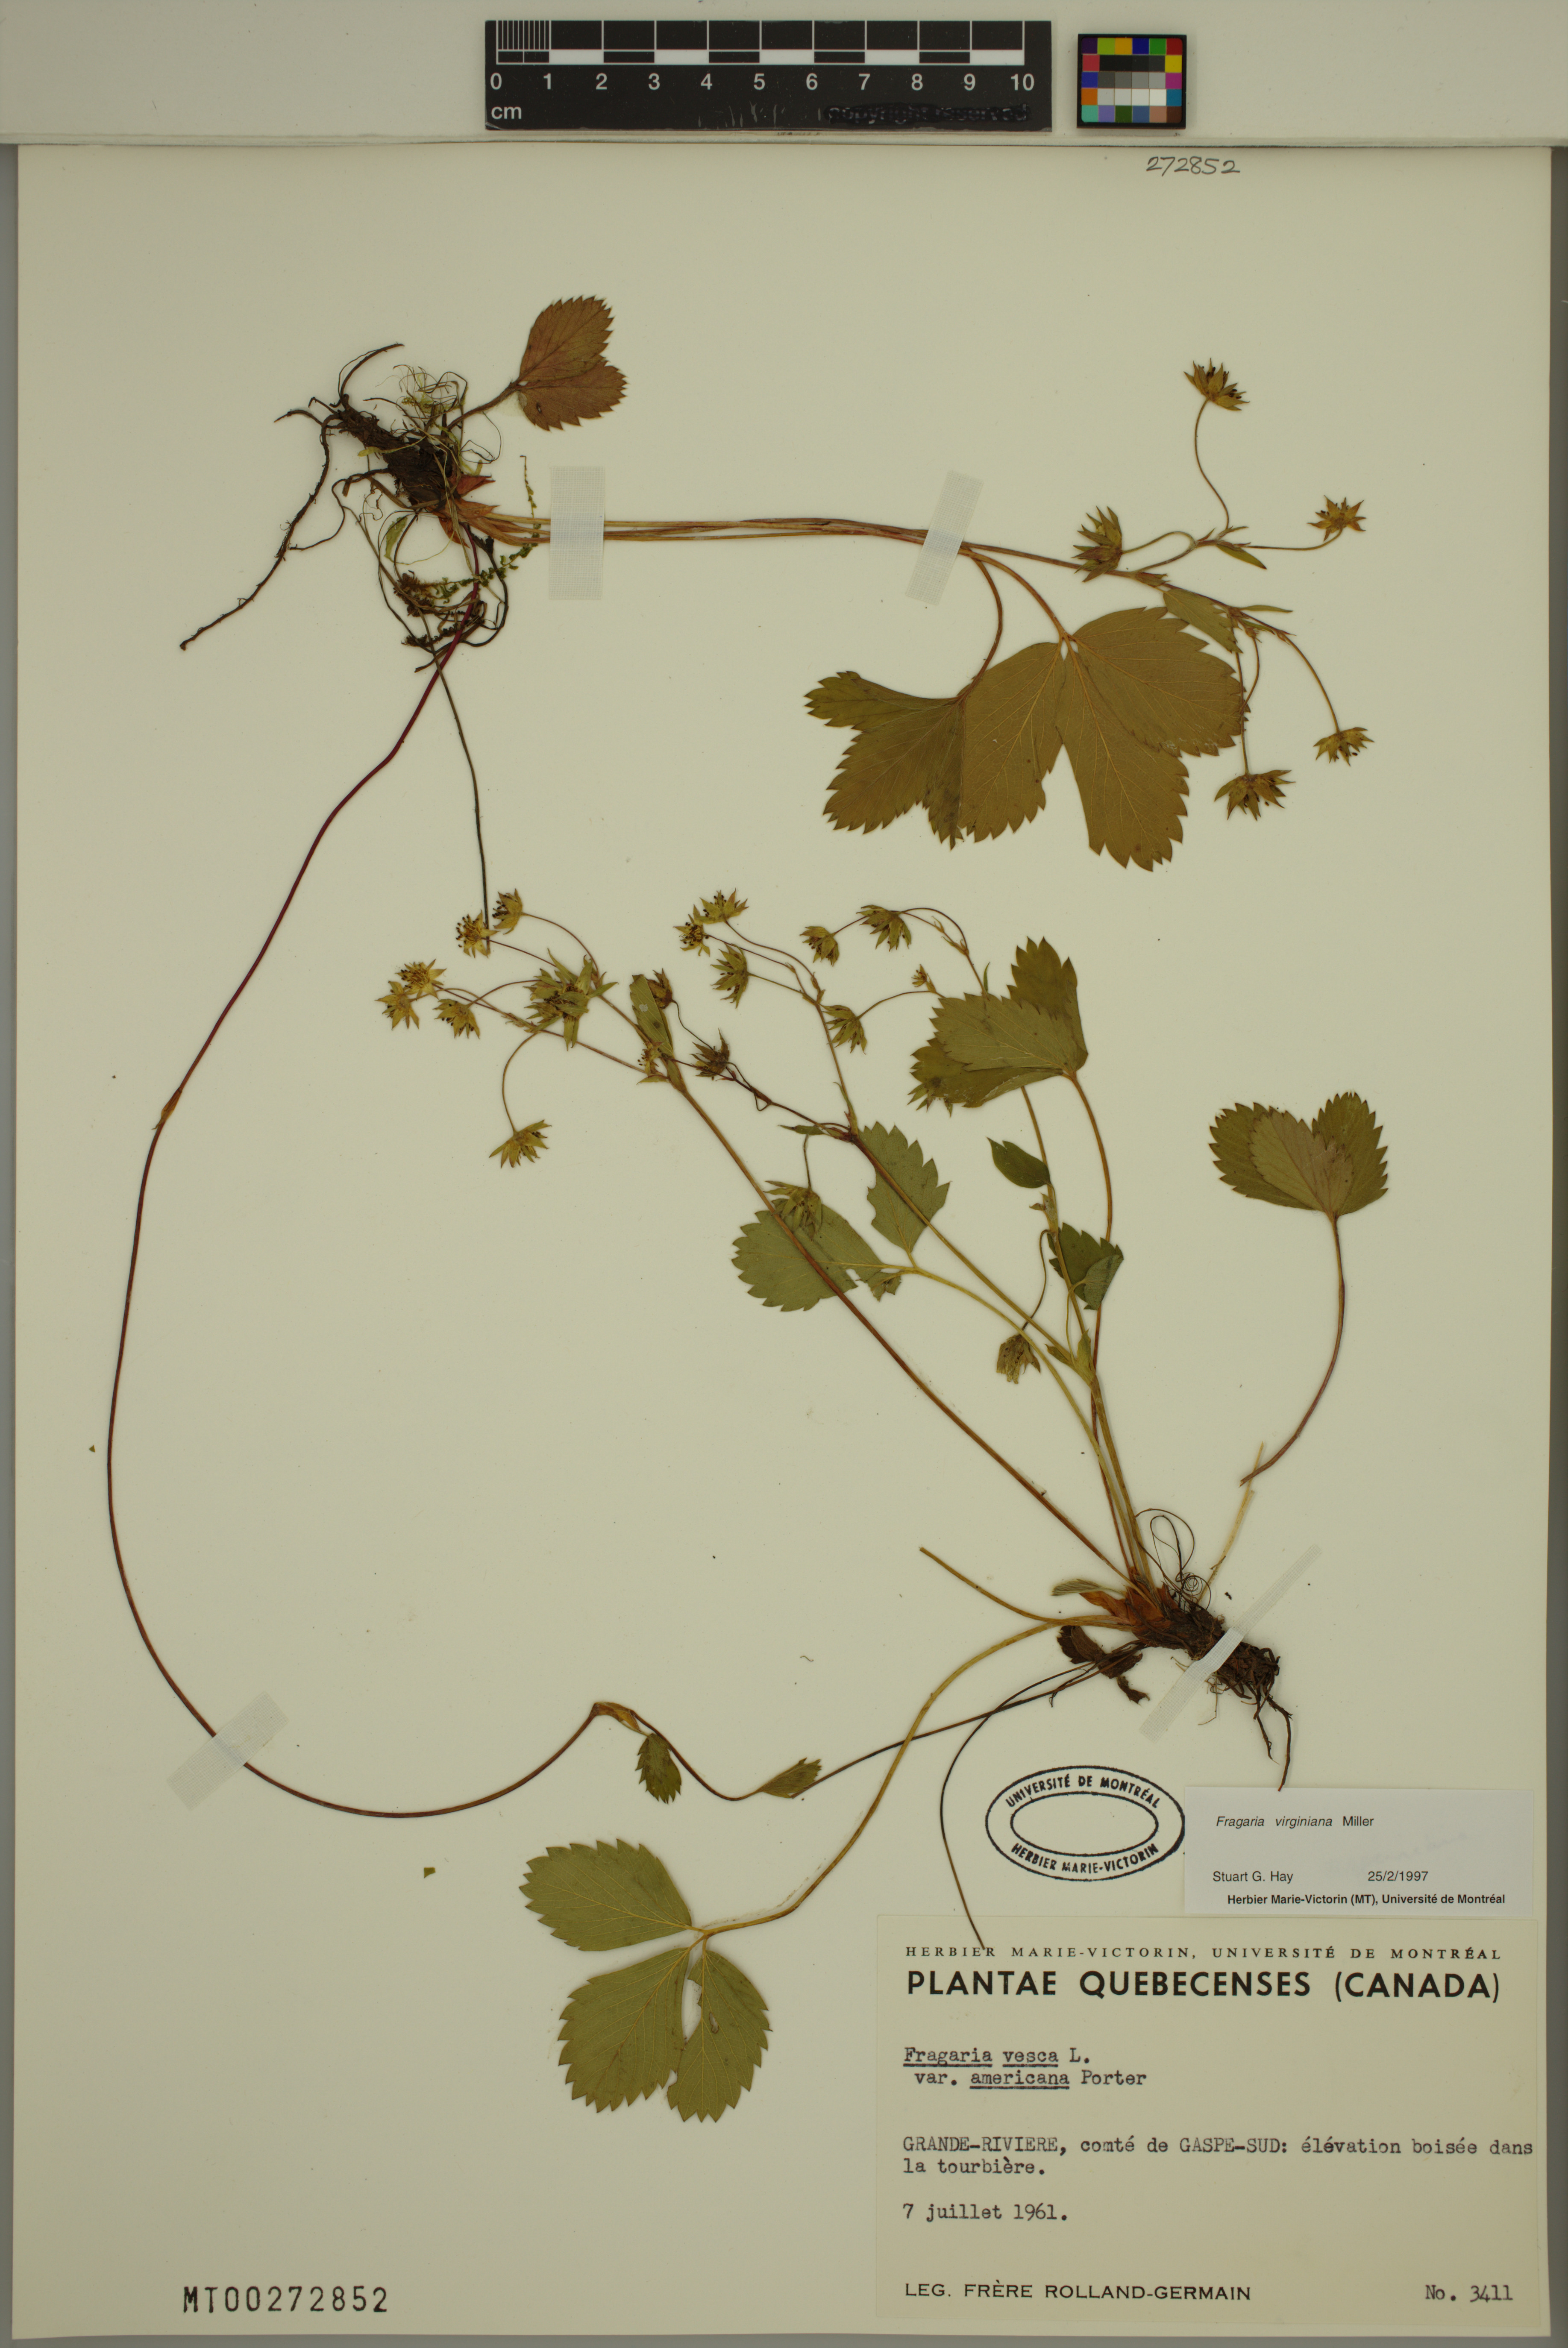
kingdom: Plantae
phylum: Tracheophyta
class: Magnoliopsida
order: Rosales
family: Rosaceae
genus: Fragaria
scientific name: Fragaria virginiana
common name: Thickleaved wild strawberry
